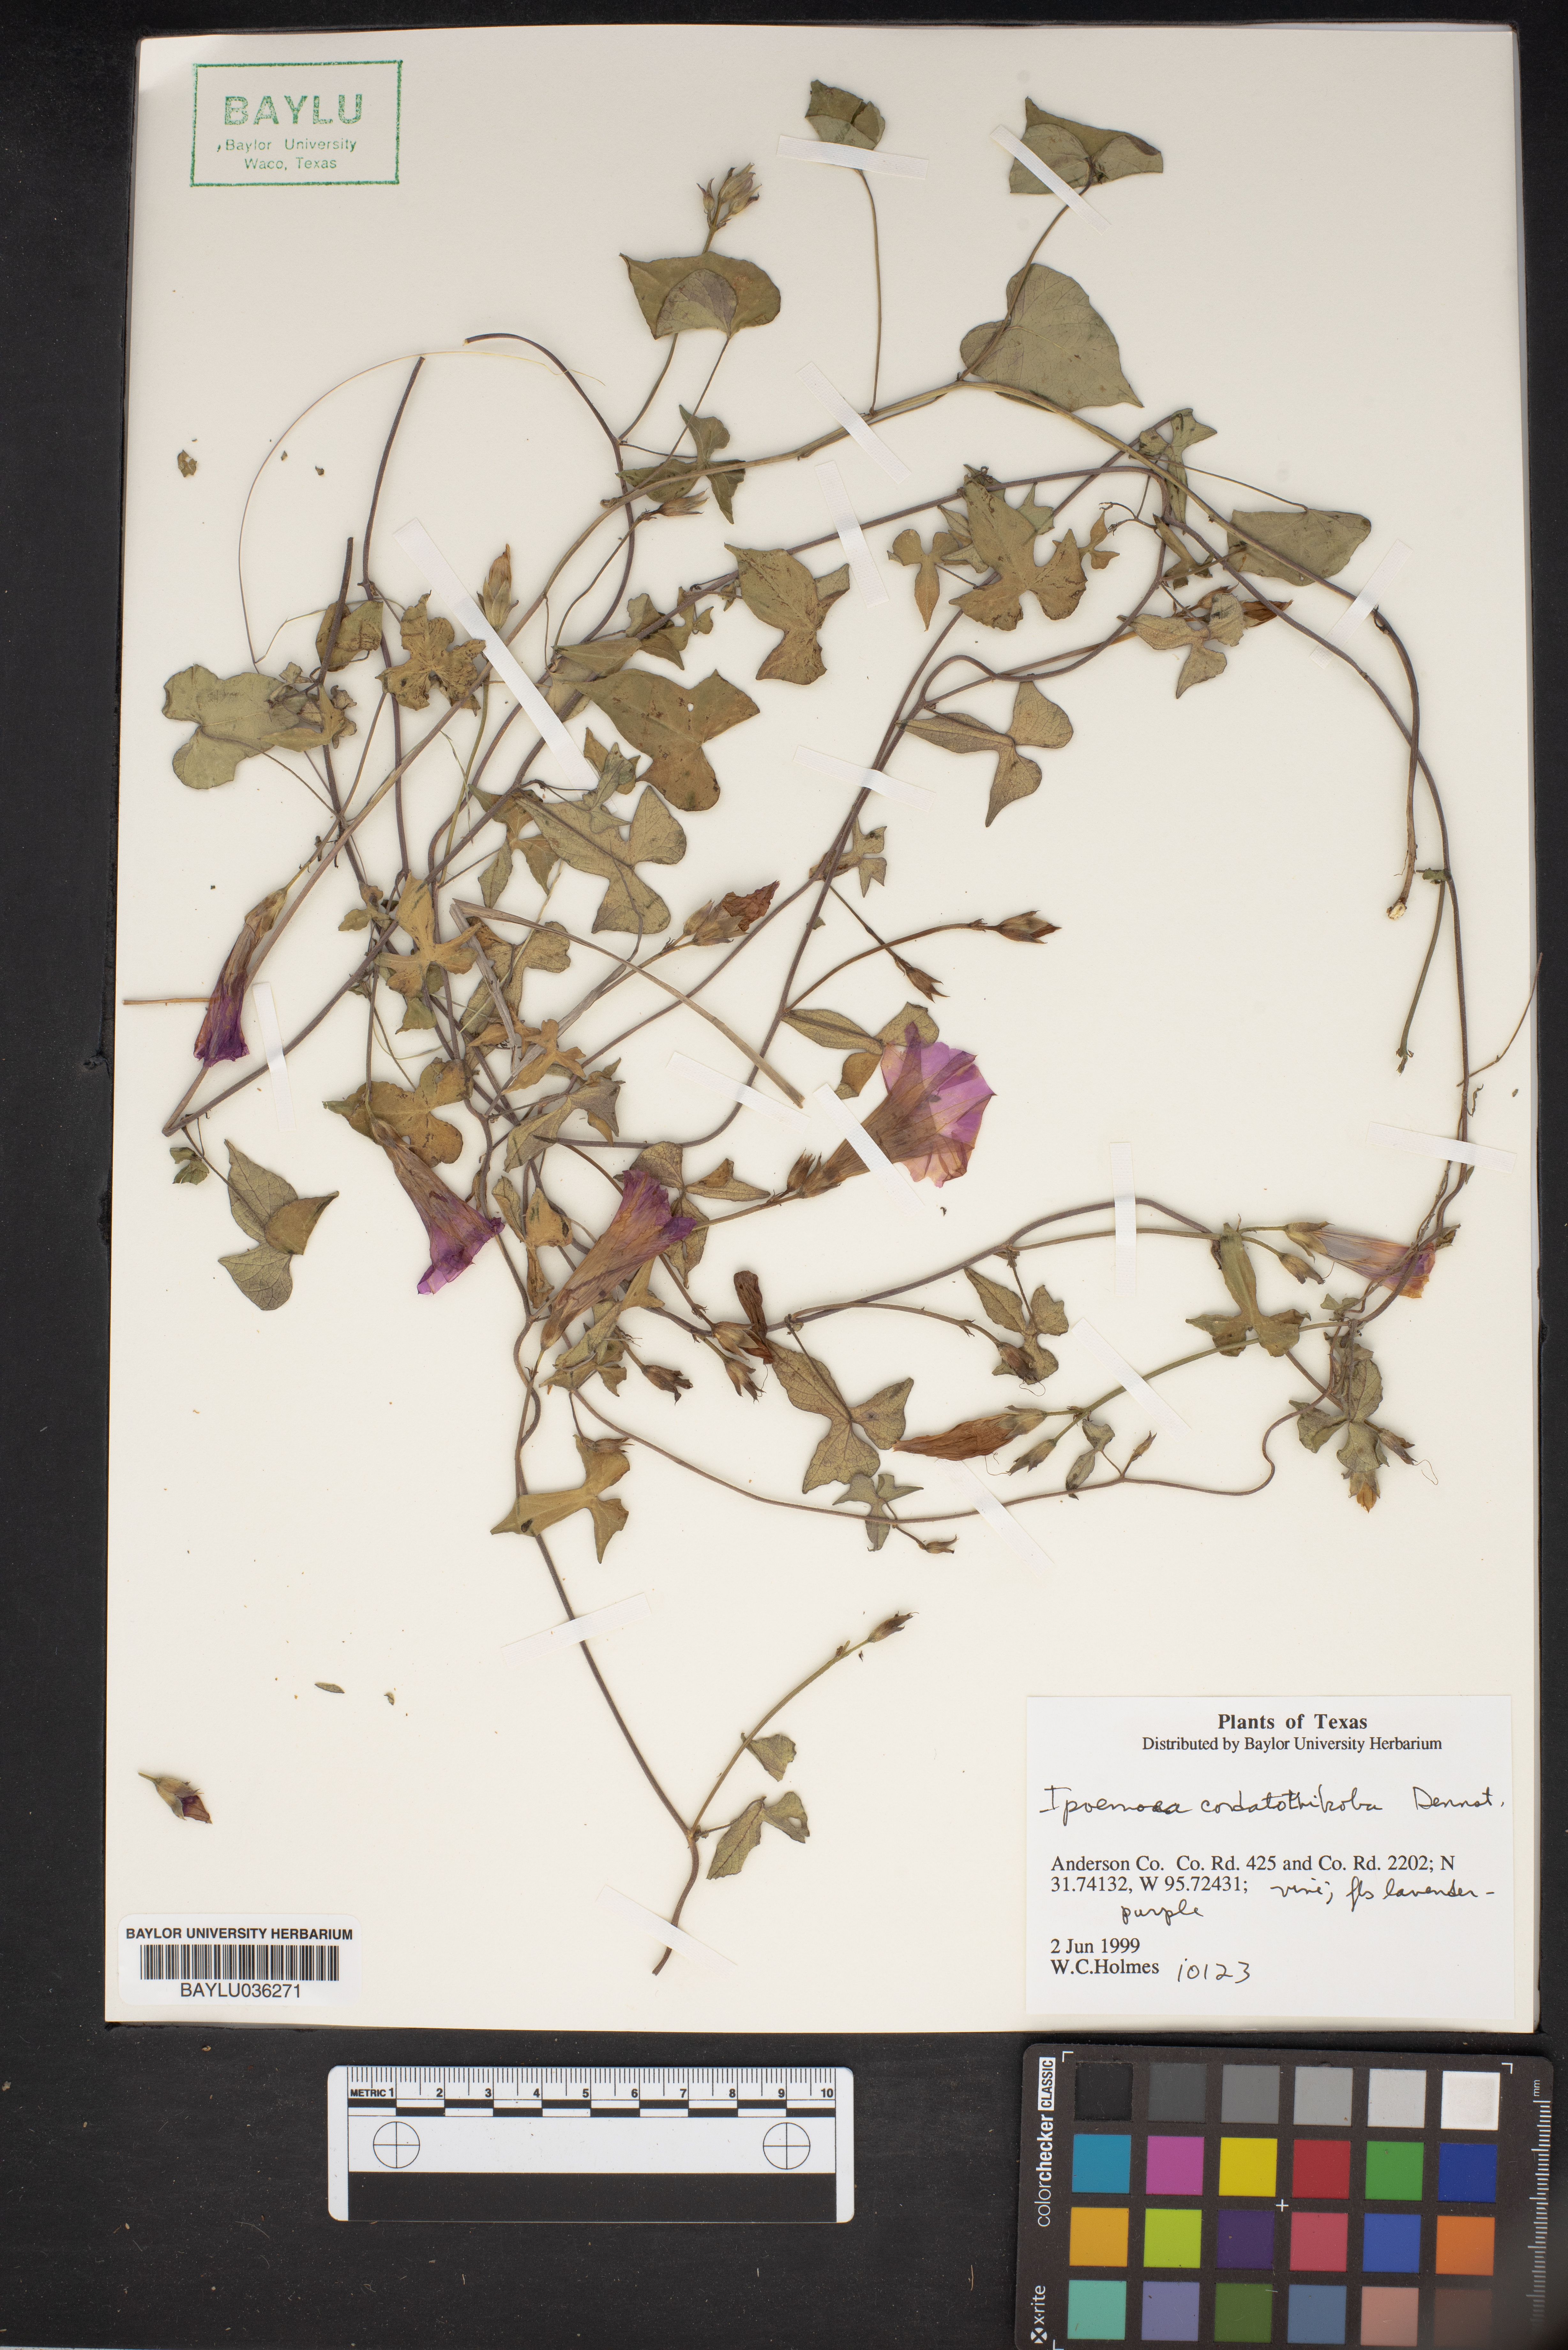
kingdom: Plantae
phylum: Tracheophyta
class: Magnoliopsida
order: Solanales
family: Convolvulaceae
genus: Ipomoea
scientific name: Ipomoea cordatotriloba
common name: Cotton morning glory
